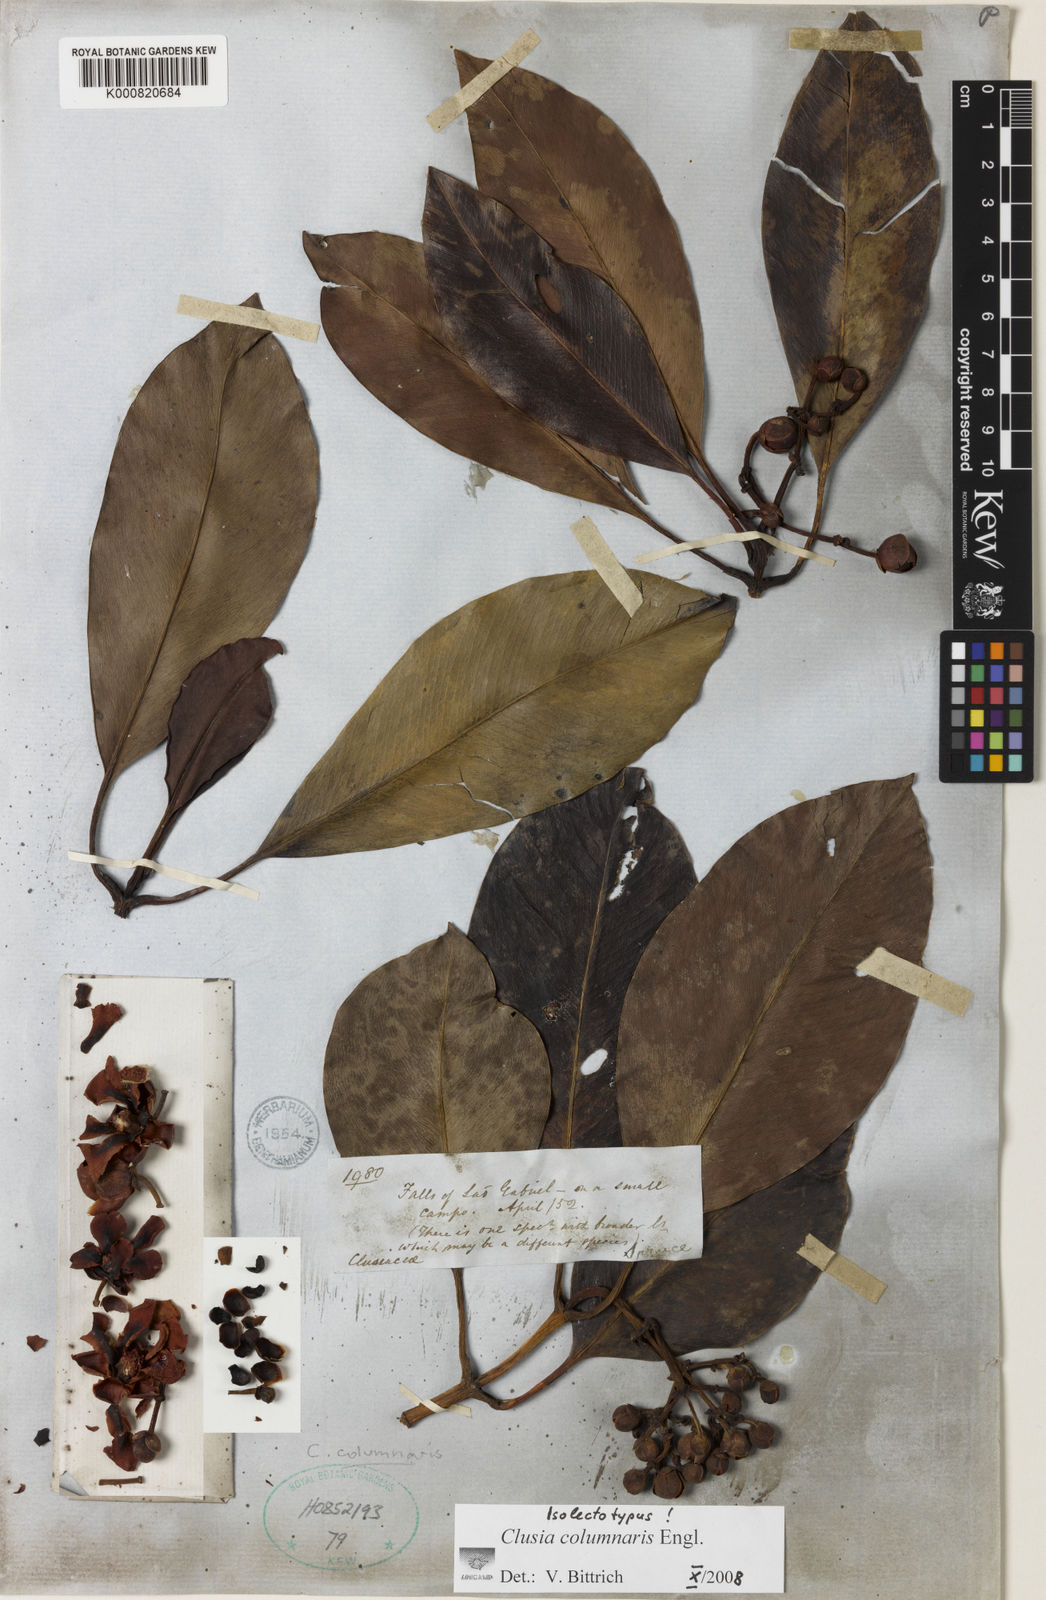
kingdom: Plantae
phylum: Tracheophyta
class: Magnoliopsida
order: Malpighiales
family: Clusiaceae
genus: Clusia
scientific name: Clusia columnaris
